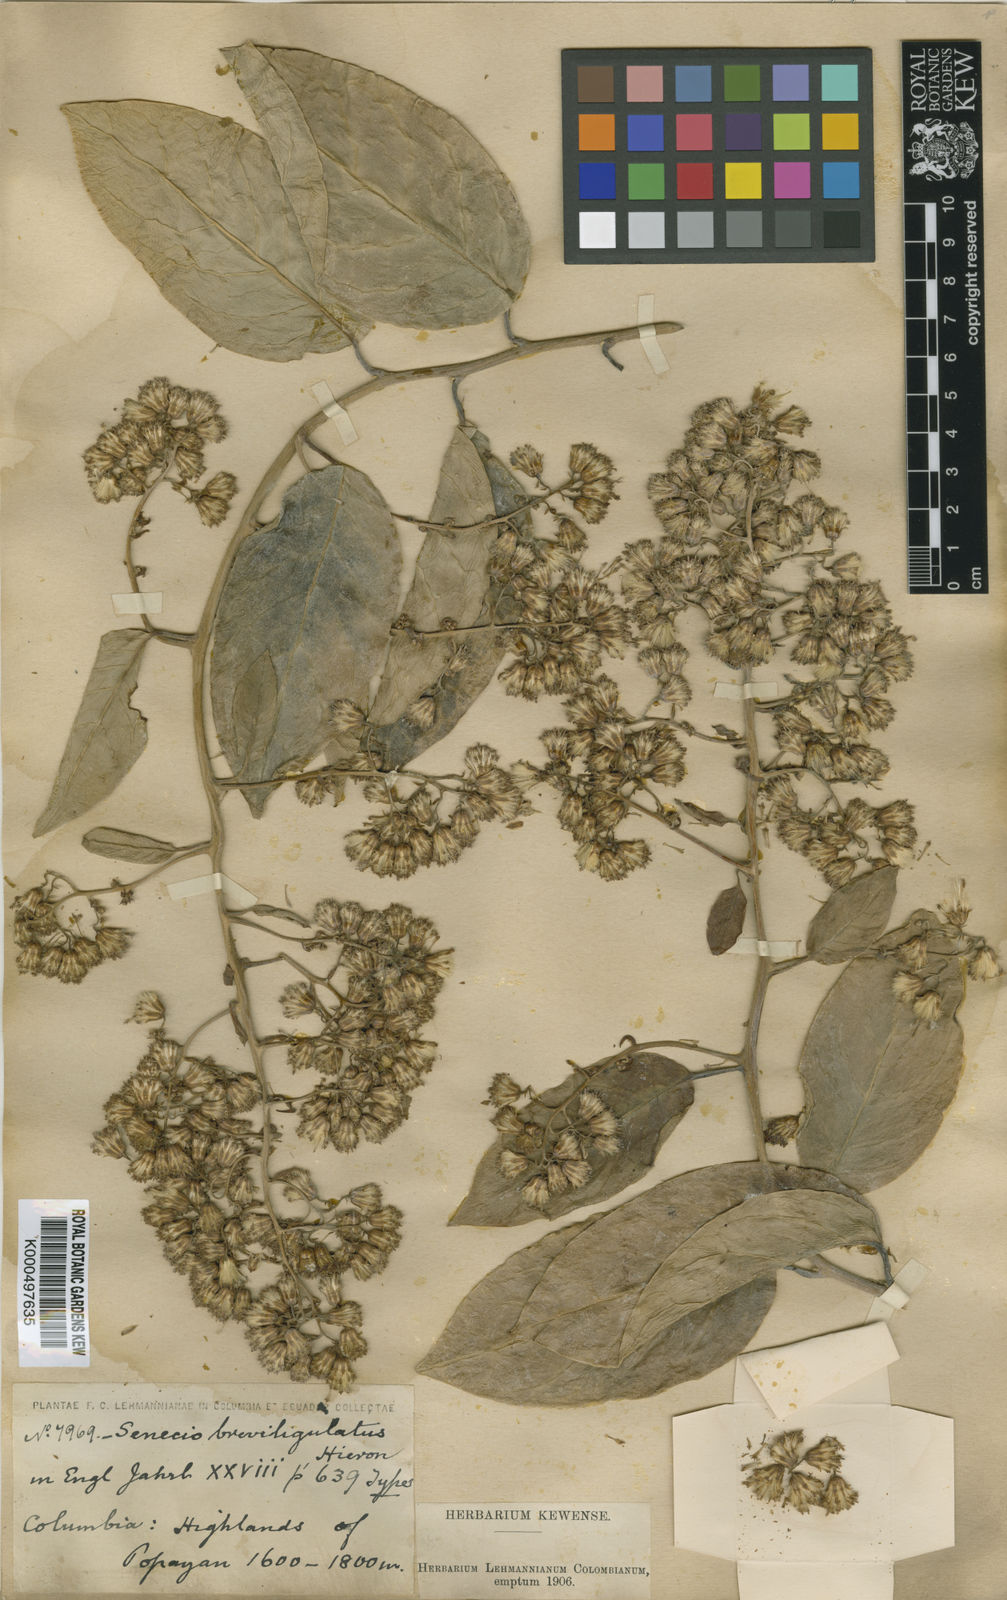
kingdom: Plantae
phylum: Tracheophyta
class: Magnoliopsida
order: Asterales
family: Asteraceae
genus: Pentacalia
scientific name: Pentacalia breviligulata
